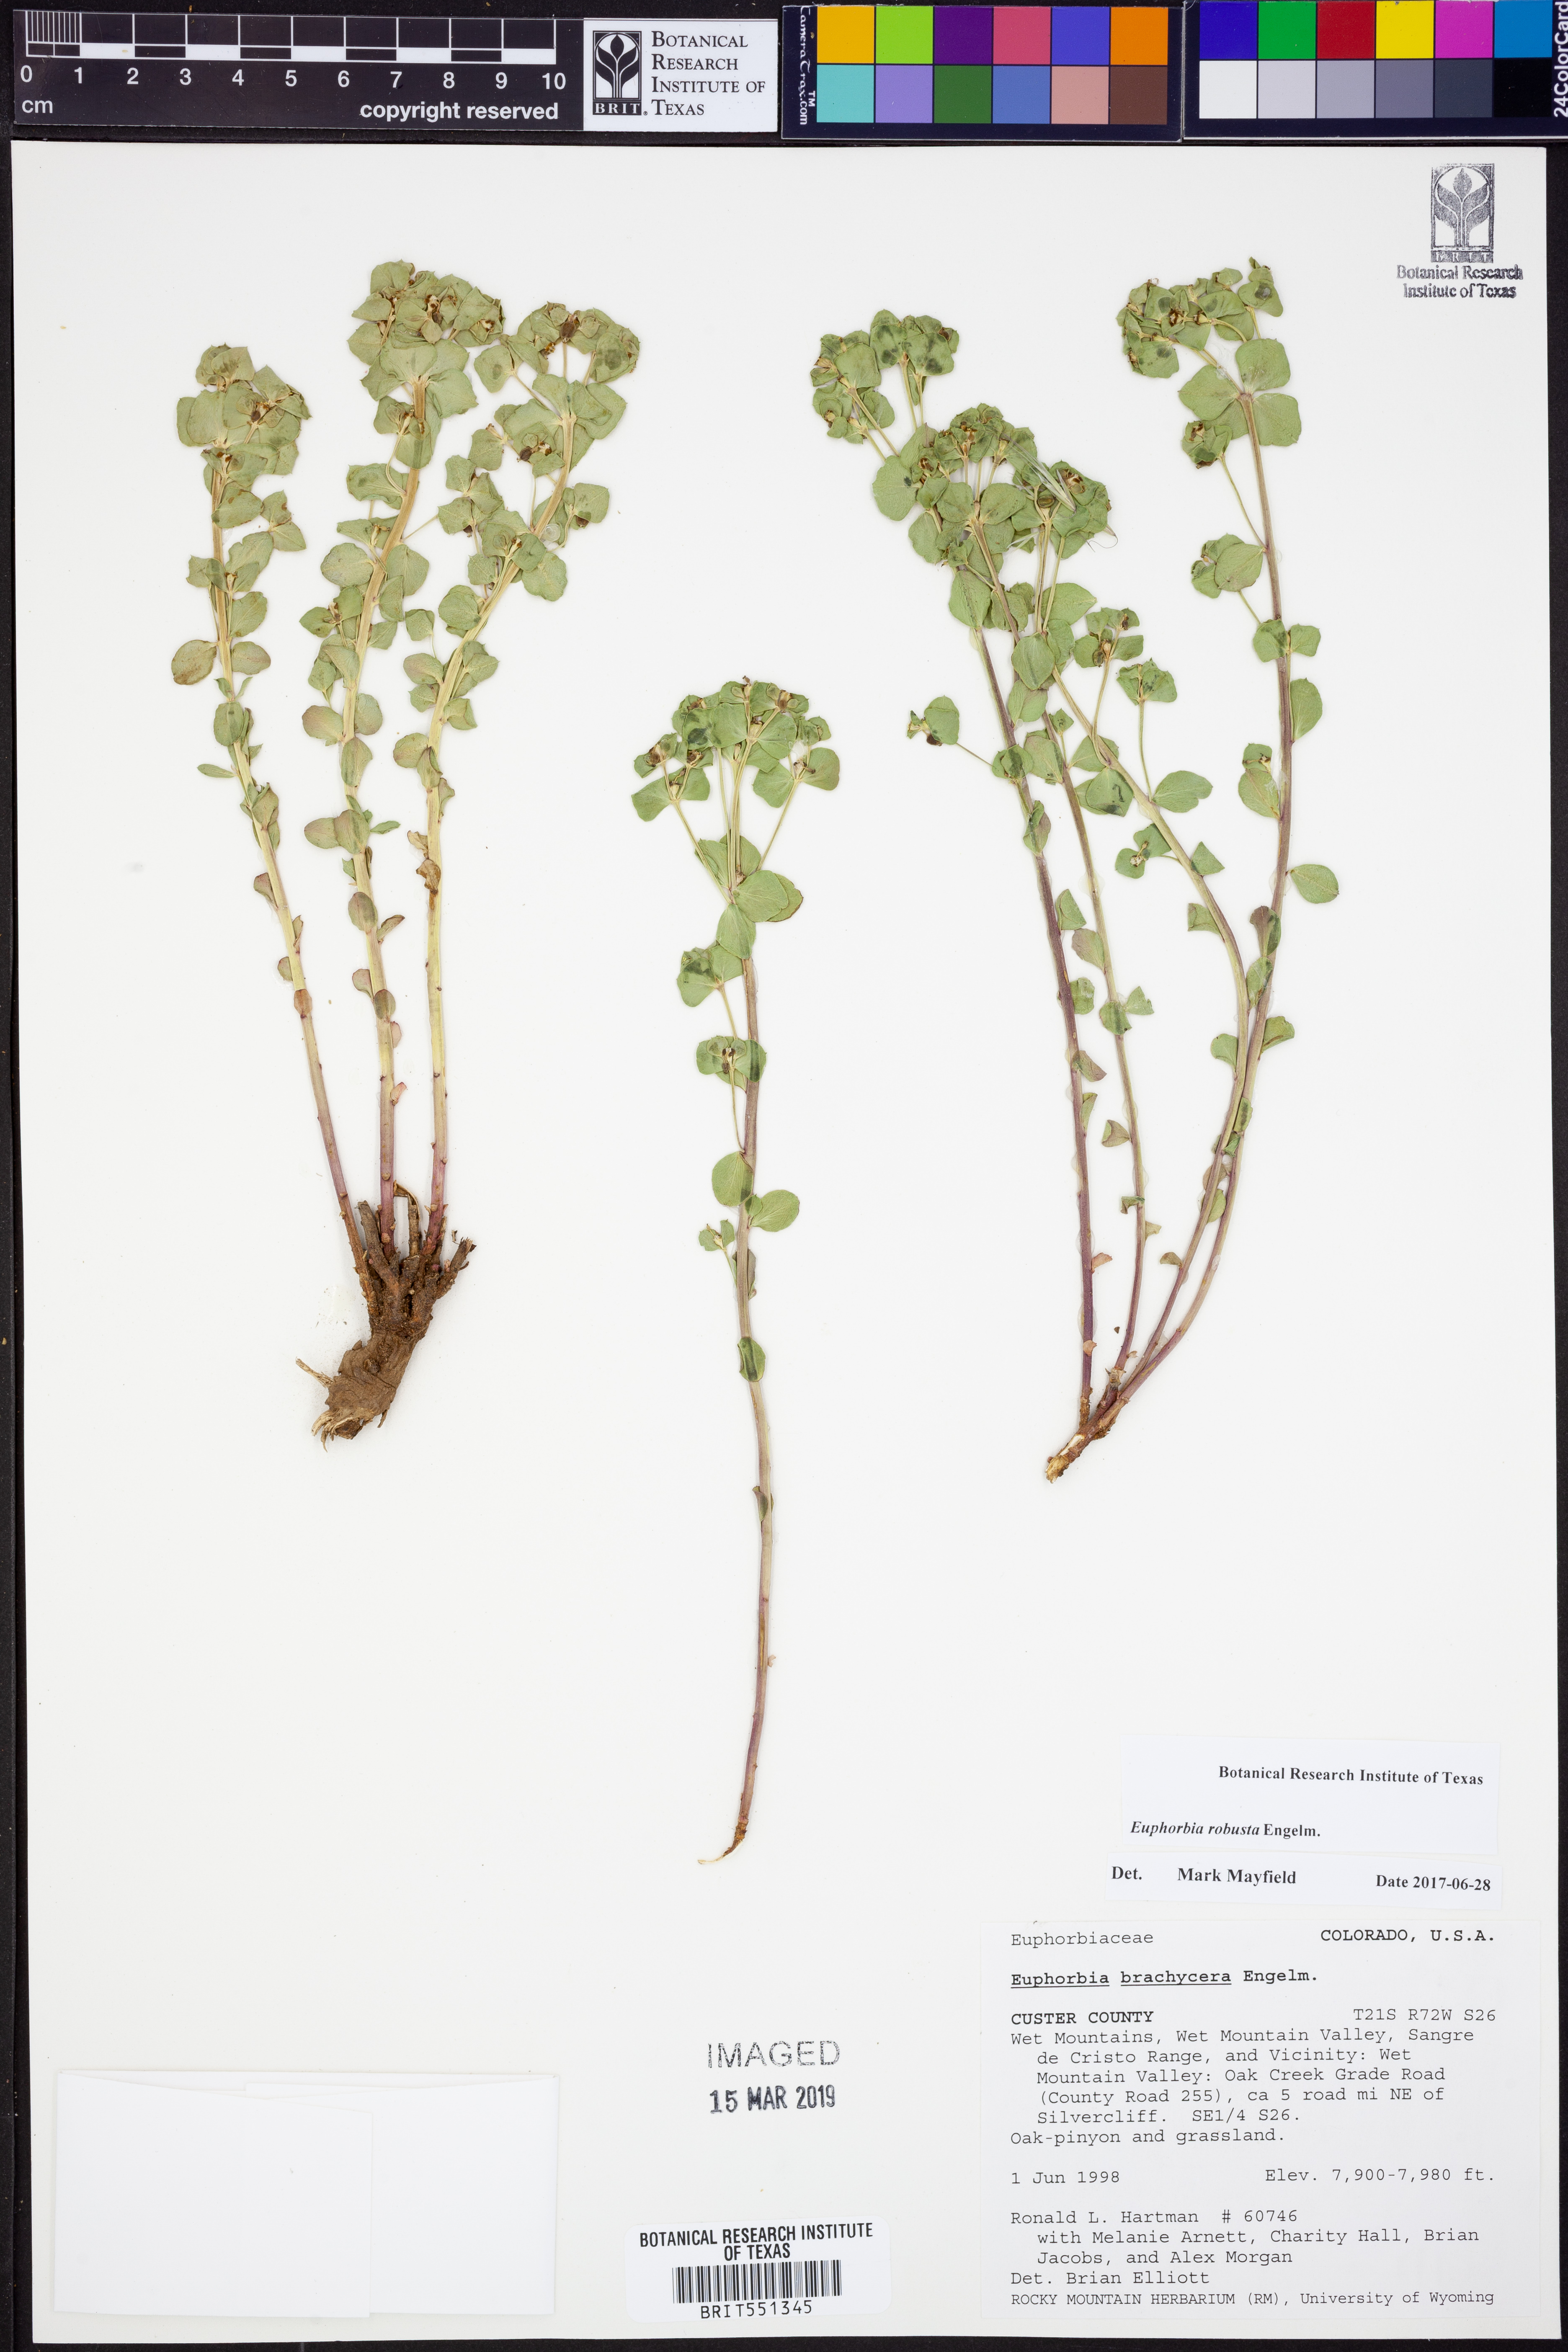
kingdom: Plantae
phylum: Tracheophyta
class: Magnoliopsida
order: Malpighiales
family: Euphorbiaceae
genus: Euphorbia
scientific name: Euphorbia brachycera
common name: Shorthorn spurge
